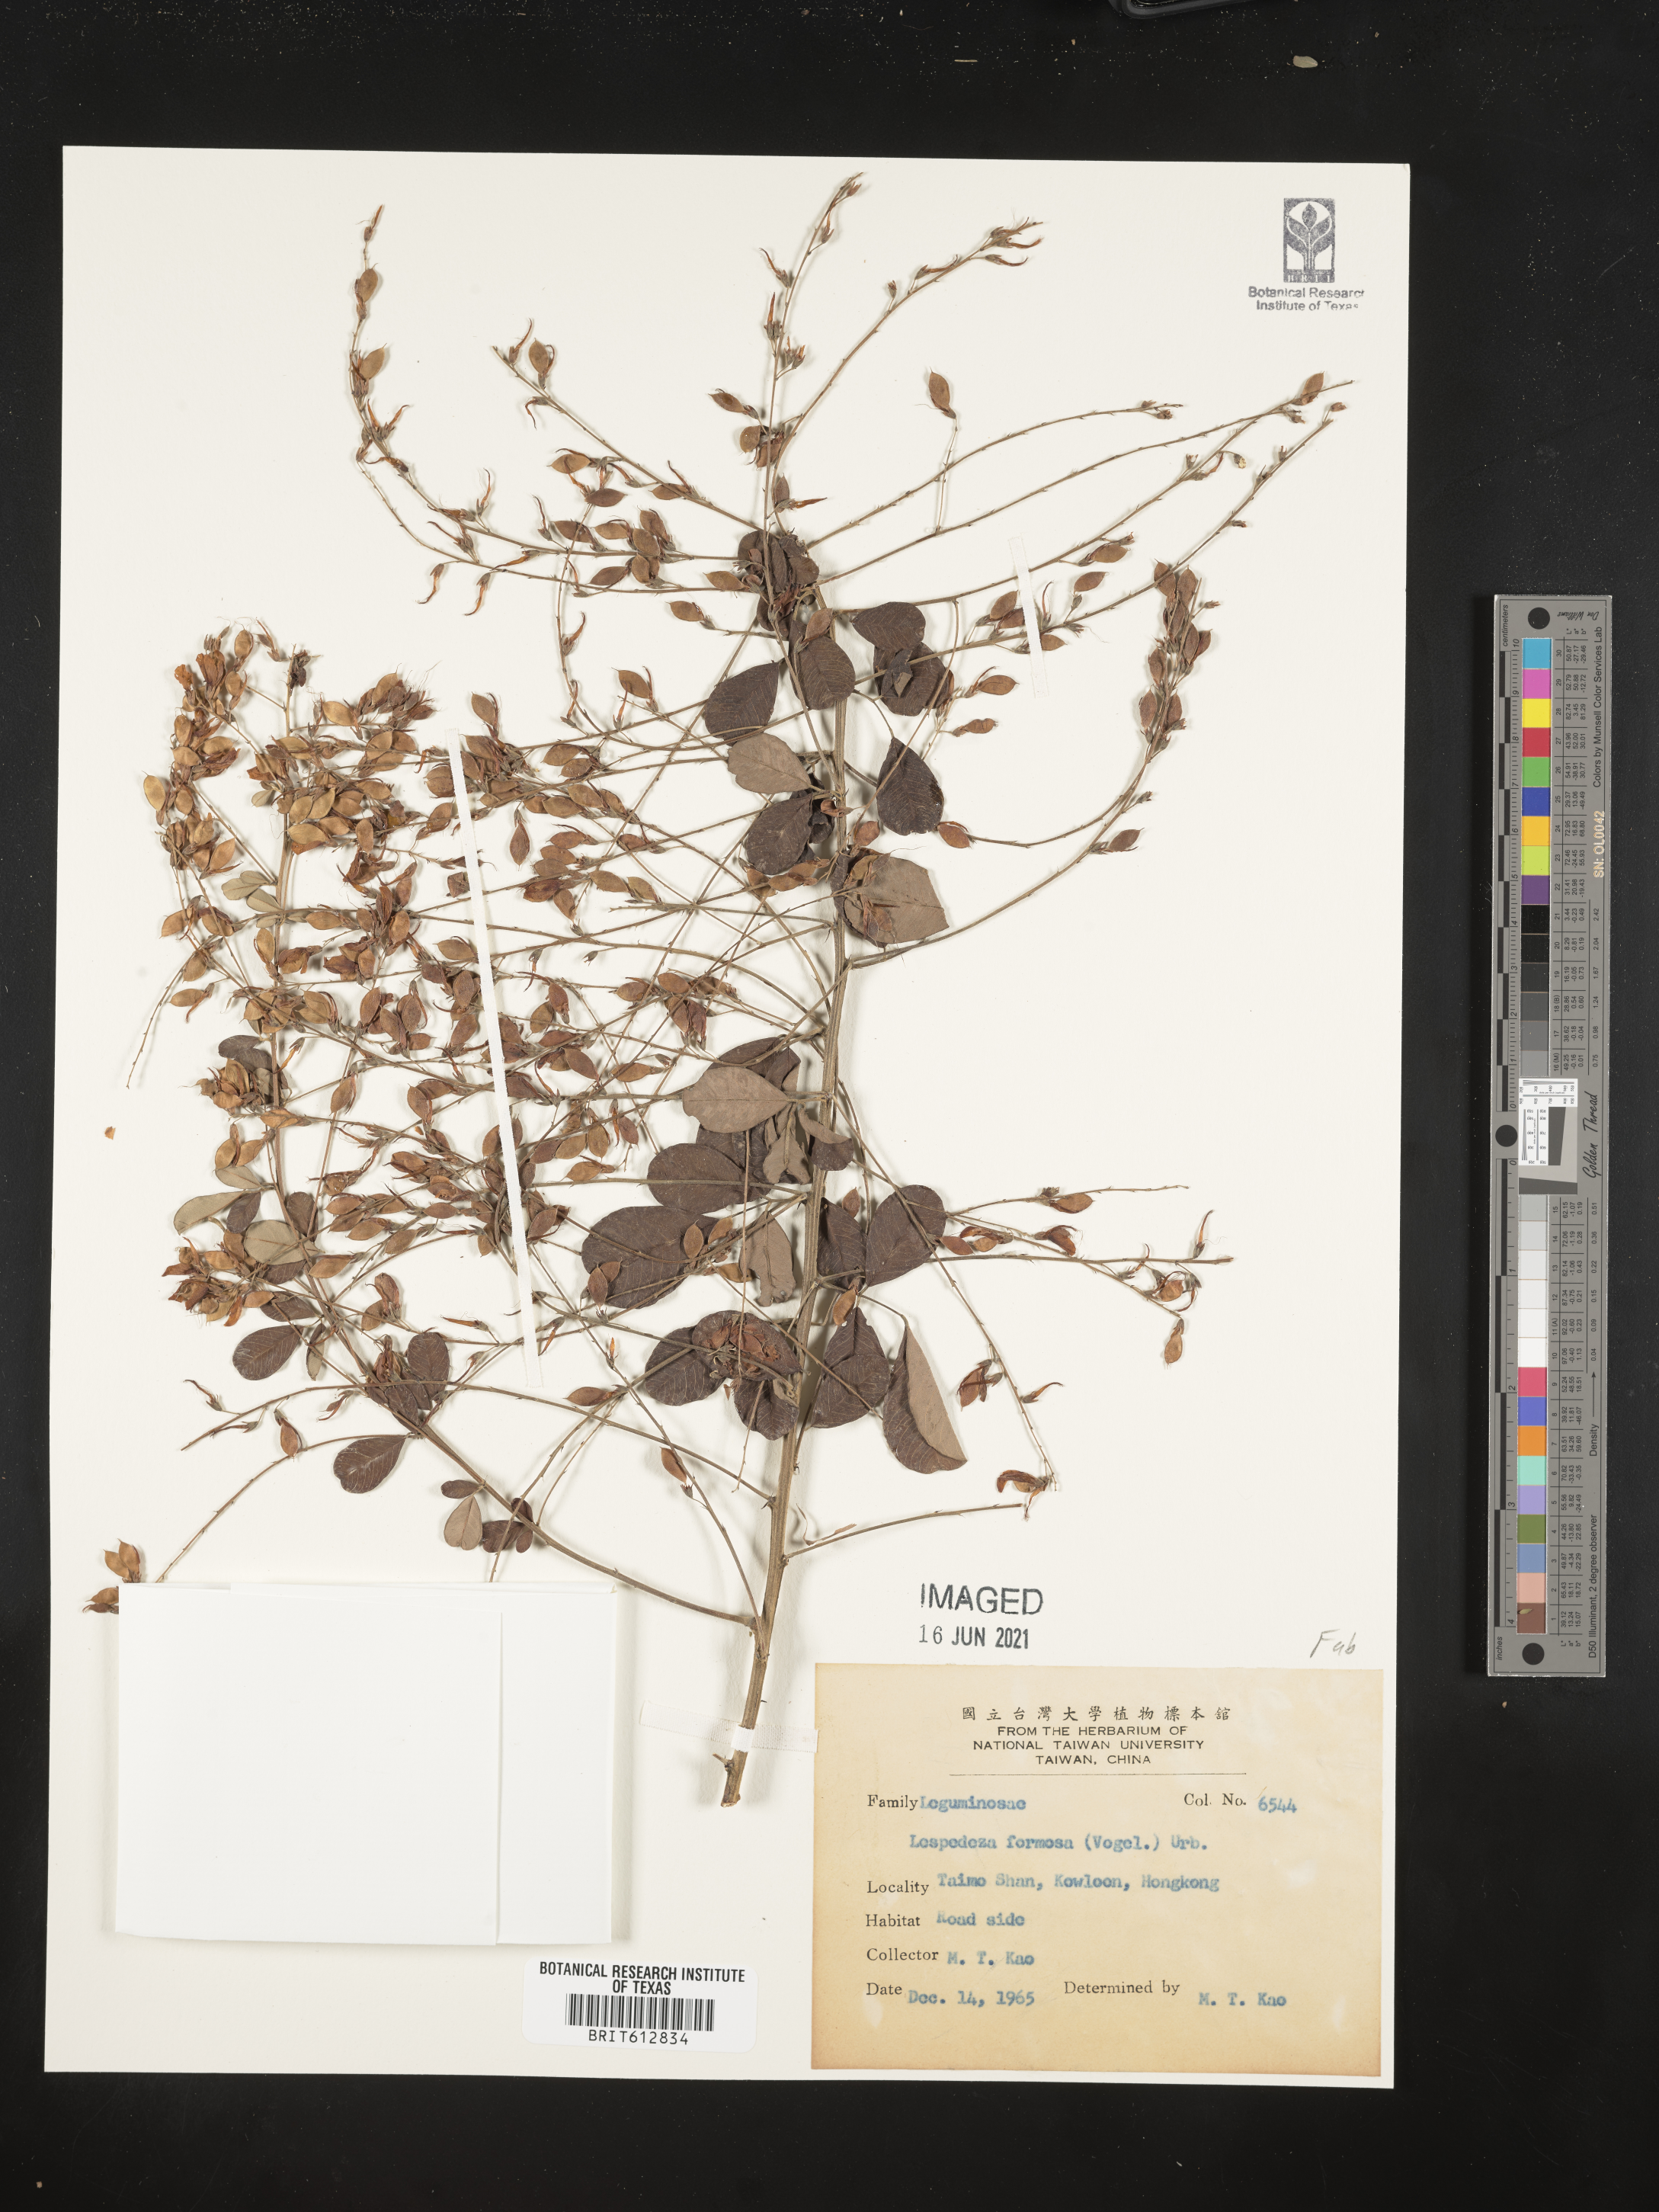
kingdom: Plantae
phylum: Tracheophyta
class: Magnoliopsida
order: Fabales
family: Fabaceae
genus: Lespedeza
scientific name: Lespedeza thunbergii
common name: Thunberg's lespedeza
